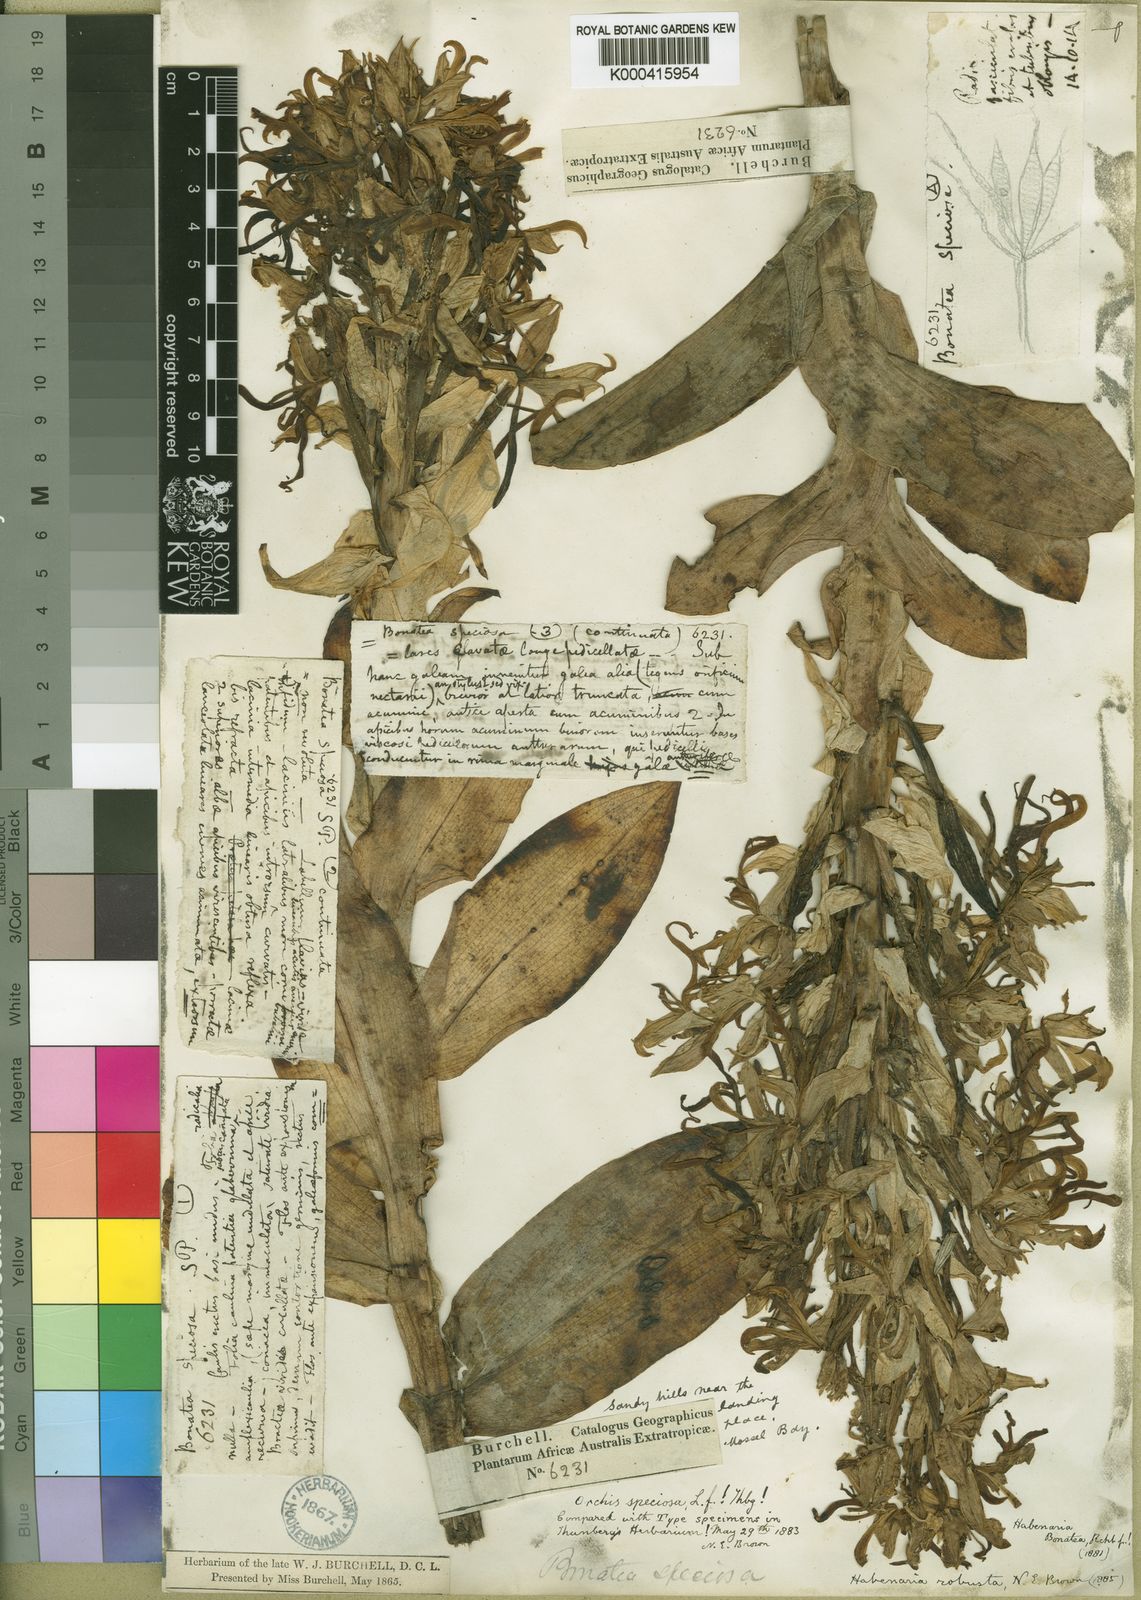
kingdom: Plantae
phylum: Tracheophyta
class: Liliopsida
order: Asparagales
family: Orchidaceae
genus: Bonatea
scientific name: Bonatea speciosa
